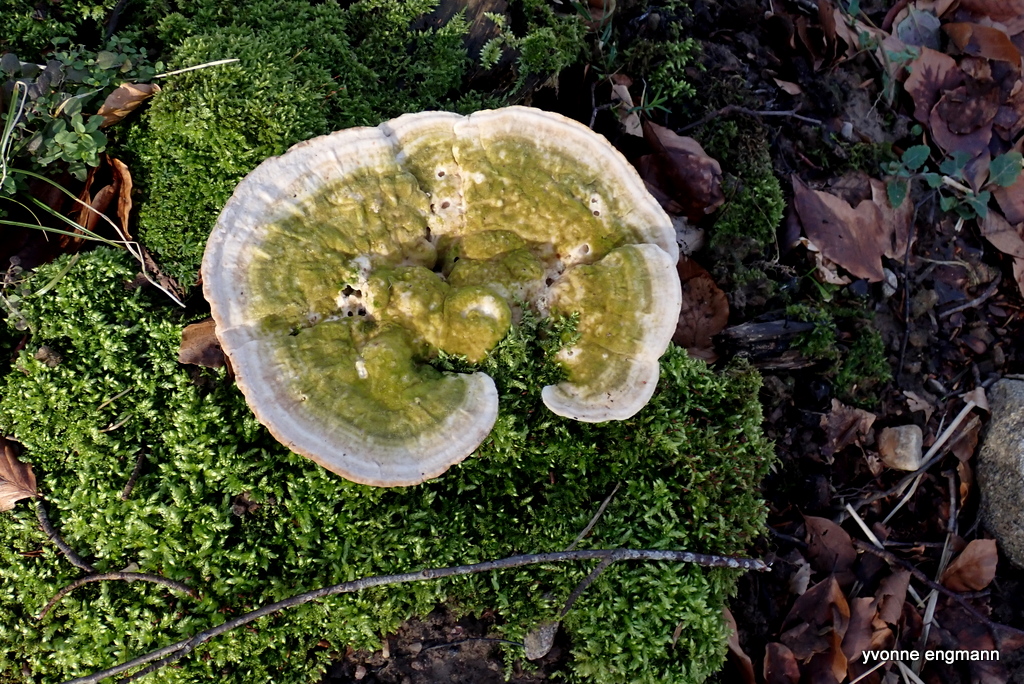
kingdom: Fungi
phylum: Basidiomycota
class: Agaricomycetes
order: Polyporales
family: Polyporaceae
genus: Trametes
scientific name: Trametes gibbosa
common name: puklet læderporesvamp
